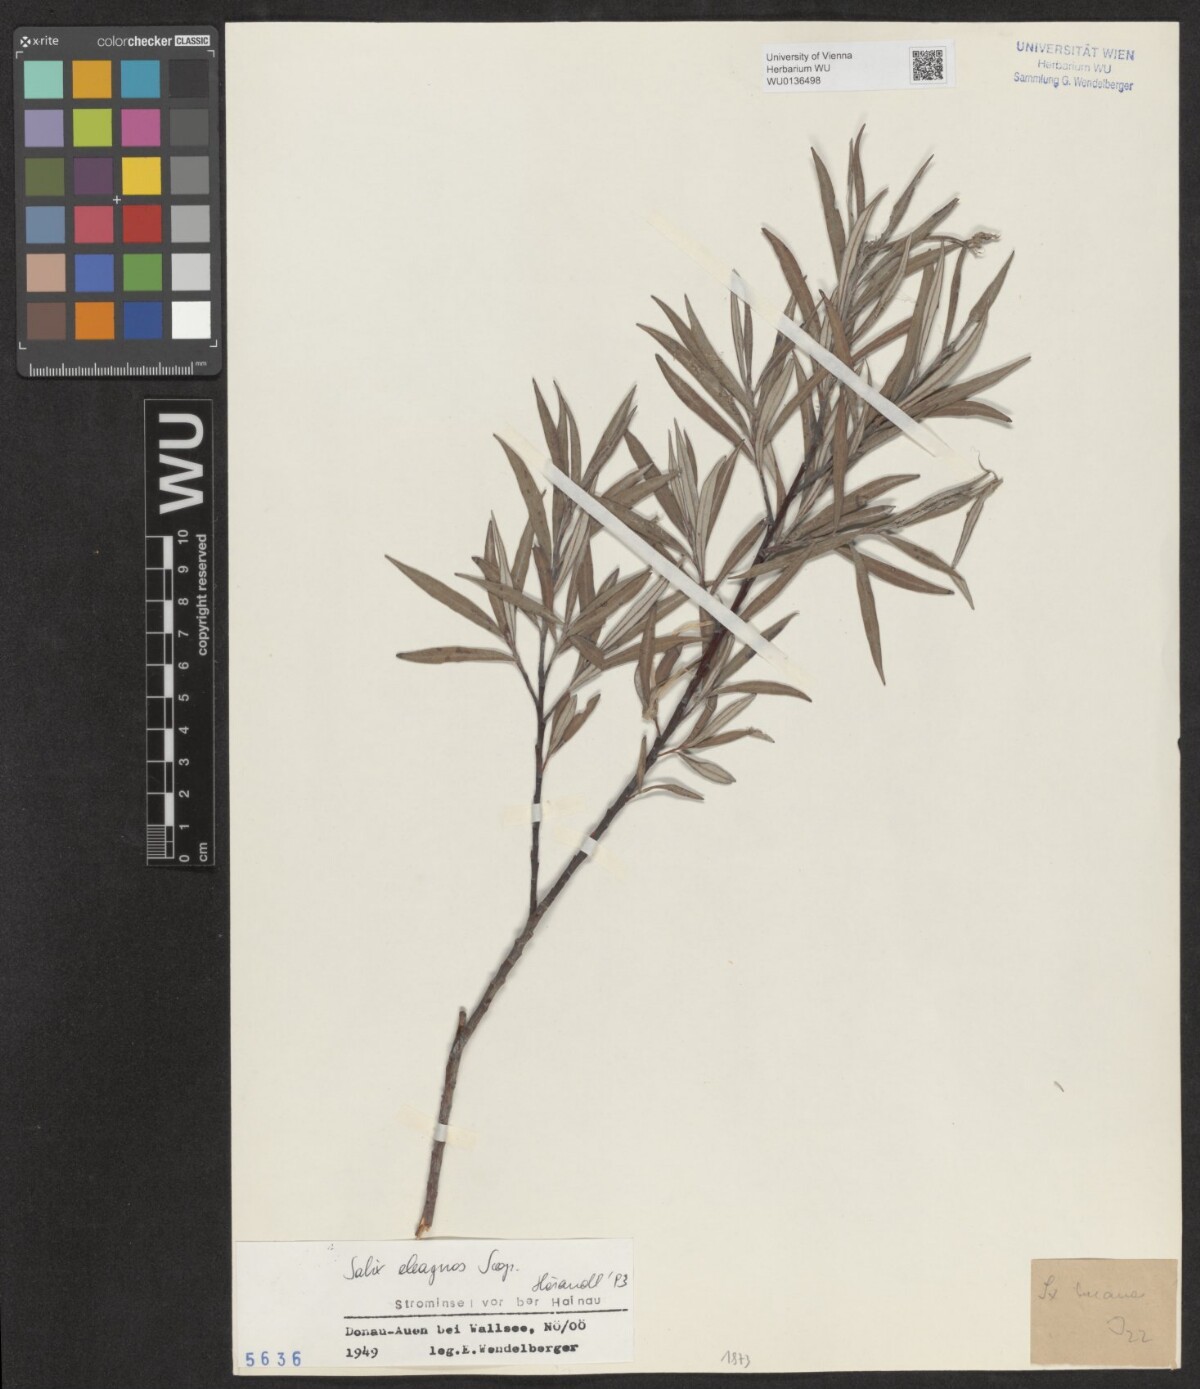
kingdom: Plantae
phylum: Tracheophyta
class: Magnoliopsida
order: Malpighiales
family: Salicaceae
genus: Salix
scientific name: Salix eleagnos
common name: Elaeagnus willow
